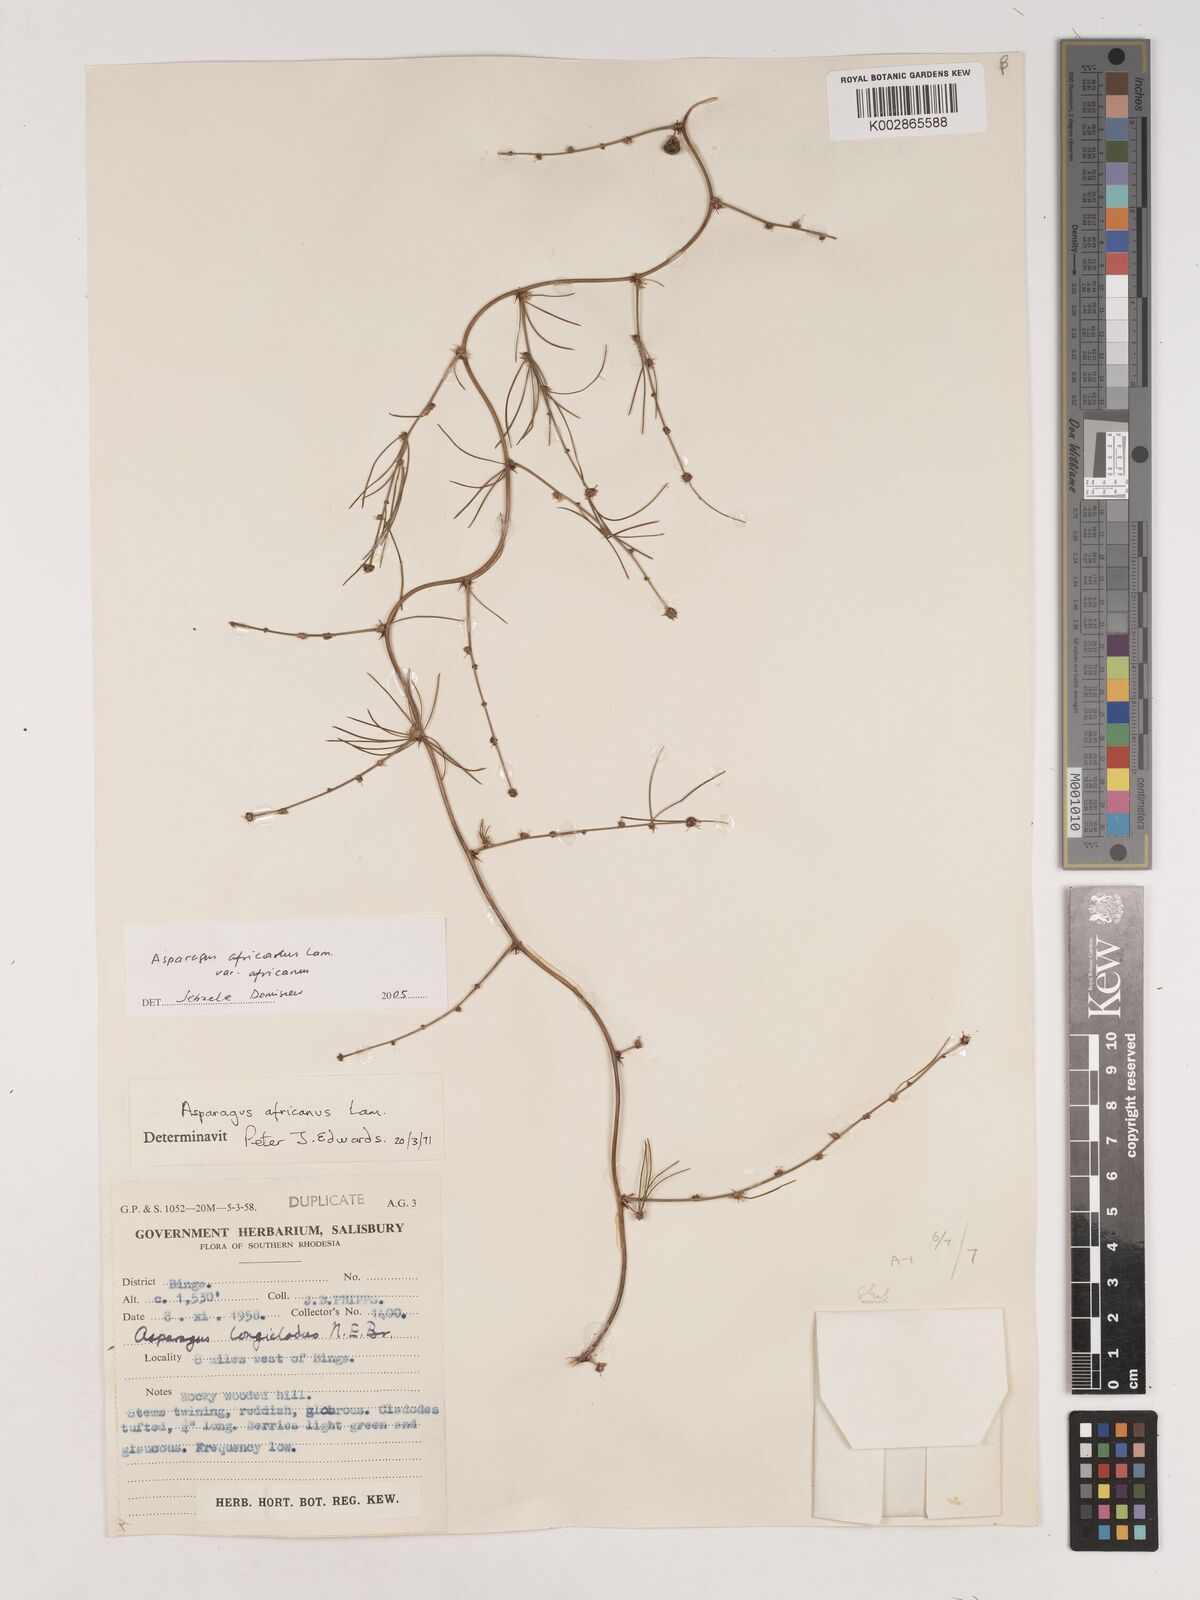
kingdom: Plantae
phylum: Tracheophyta
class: Liliopsida
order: Asparagales
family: Asparagaceae
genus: Asparagus
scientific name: Asparagus africanus
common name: Asparagus-fern
